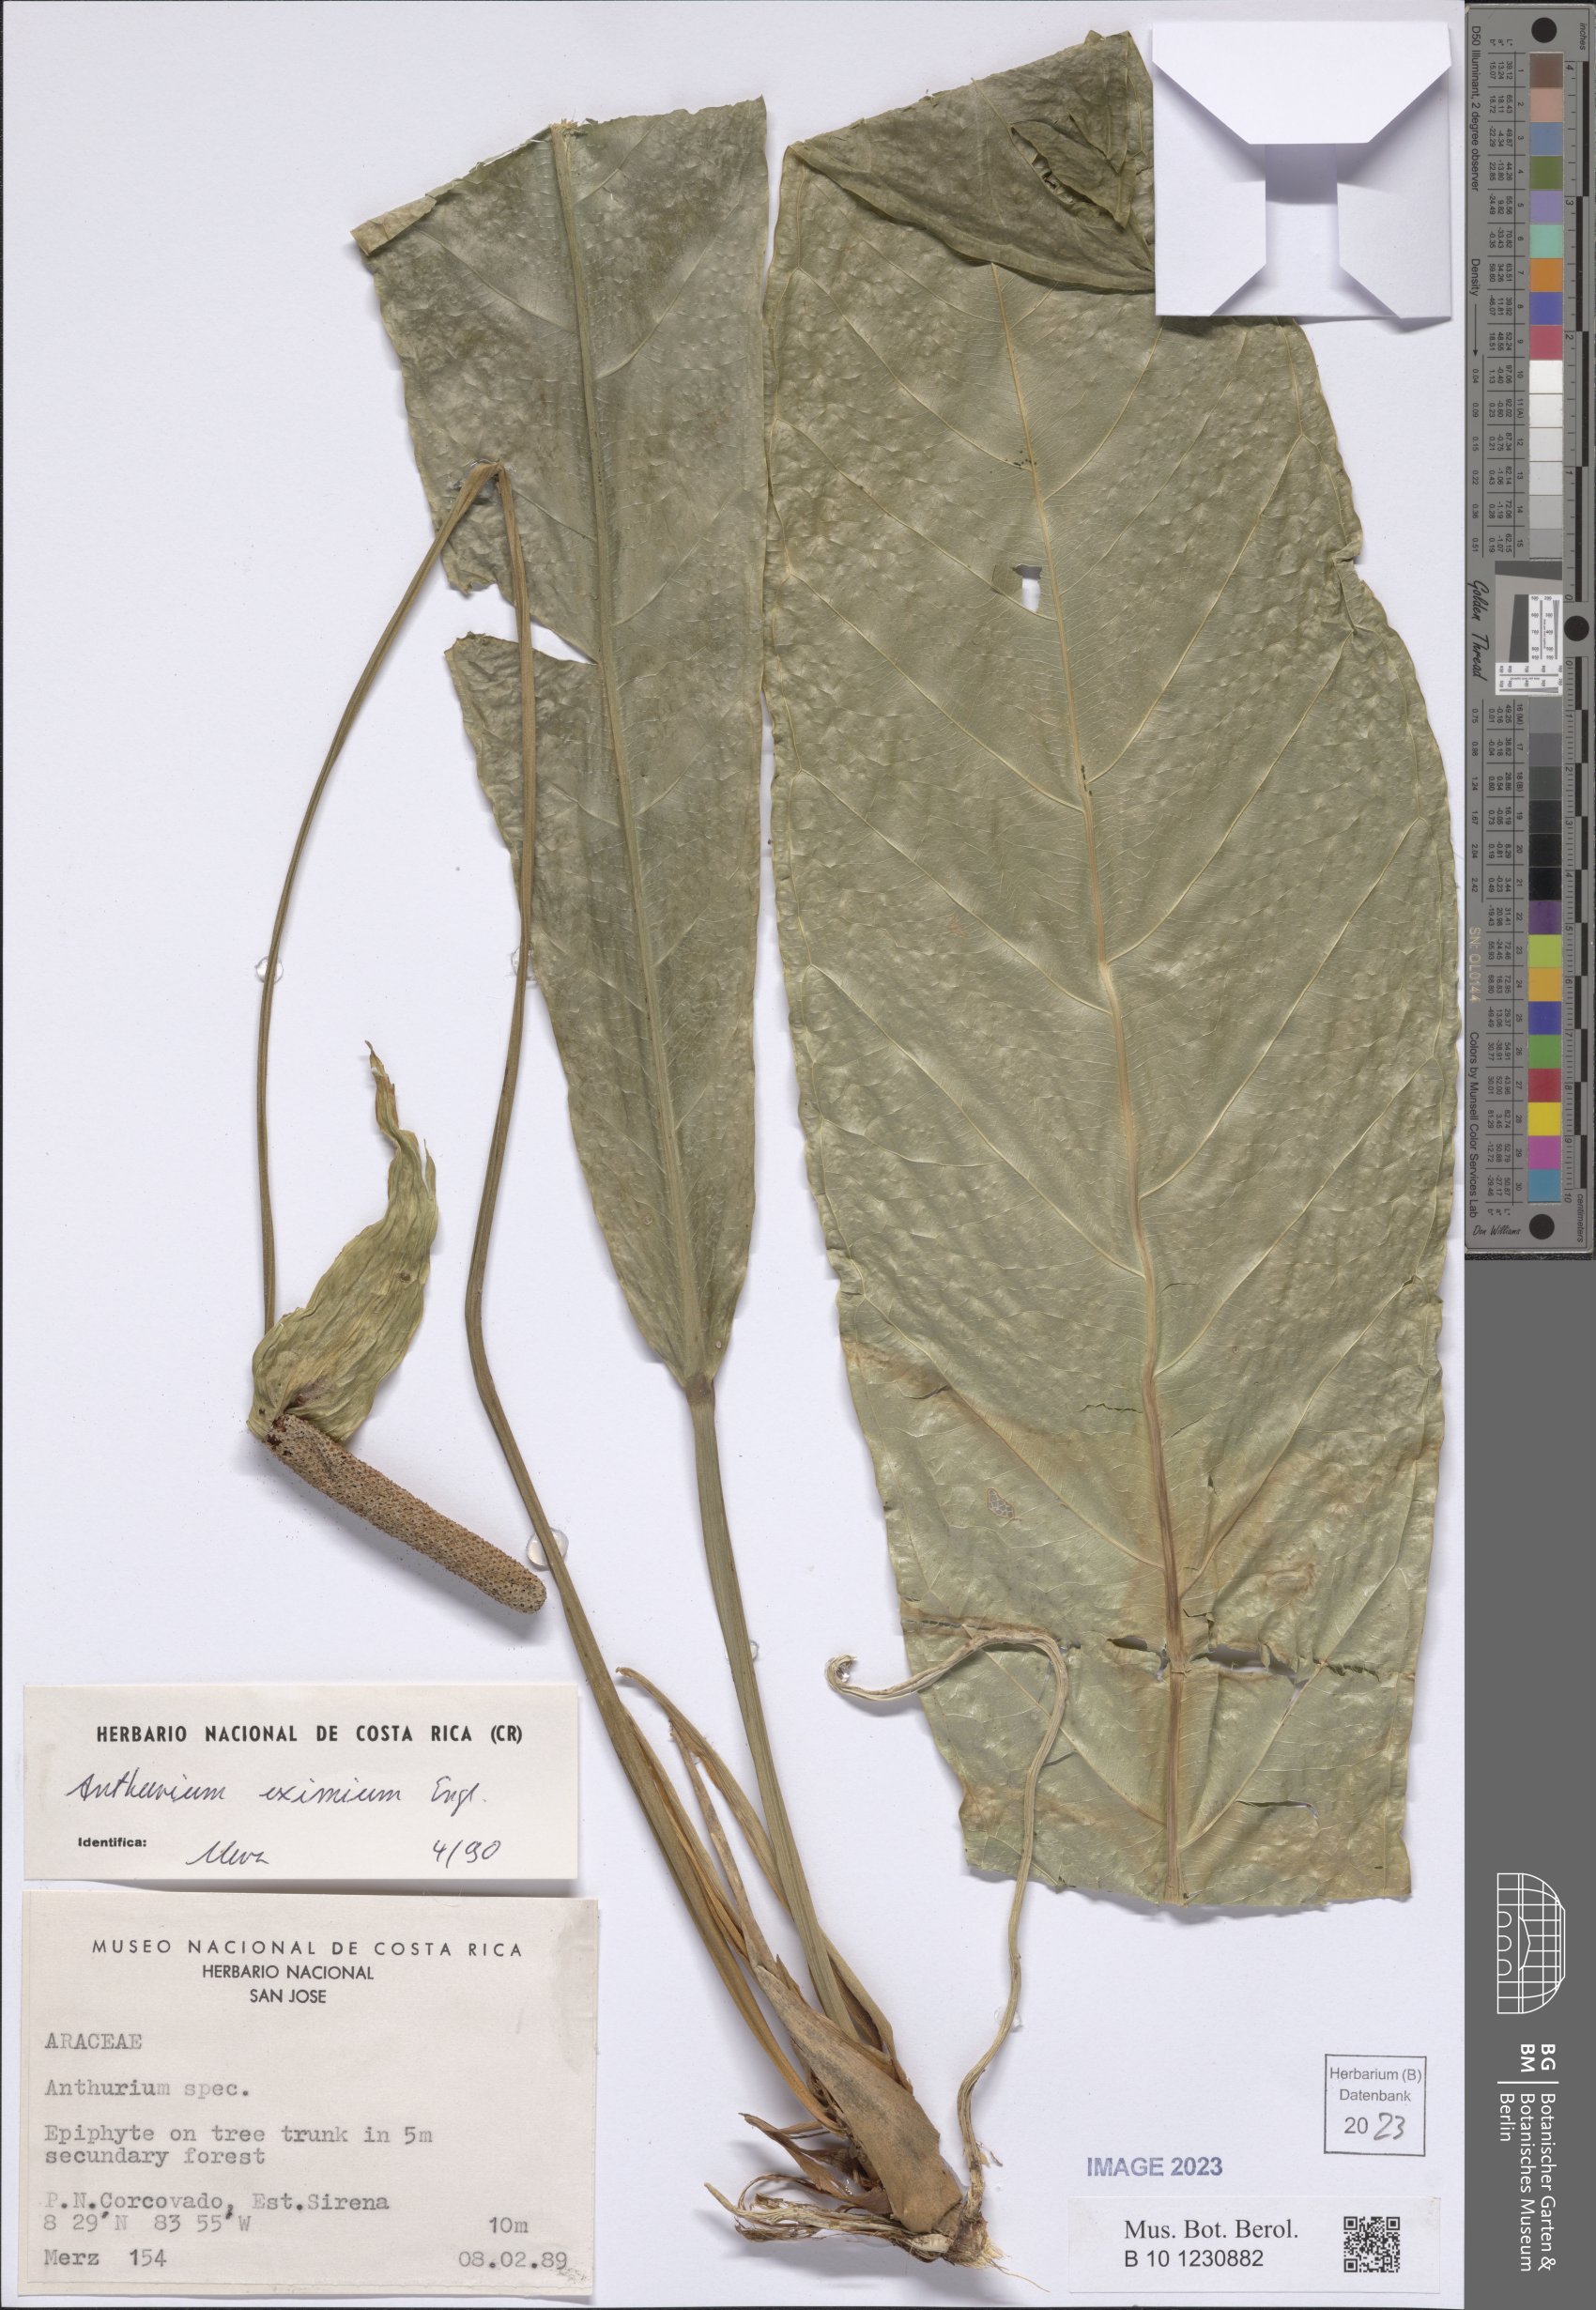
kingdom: Plantae
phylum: Tracheophyta
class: Liliopsida
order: Alismatales
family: Araceae
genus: Anthurium
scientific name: Anthurium eximium
